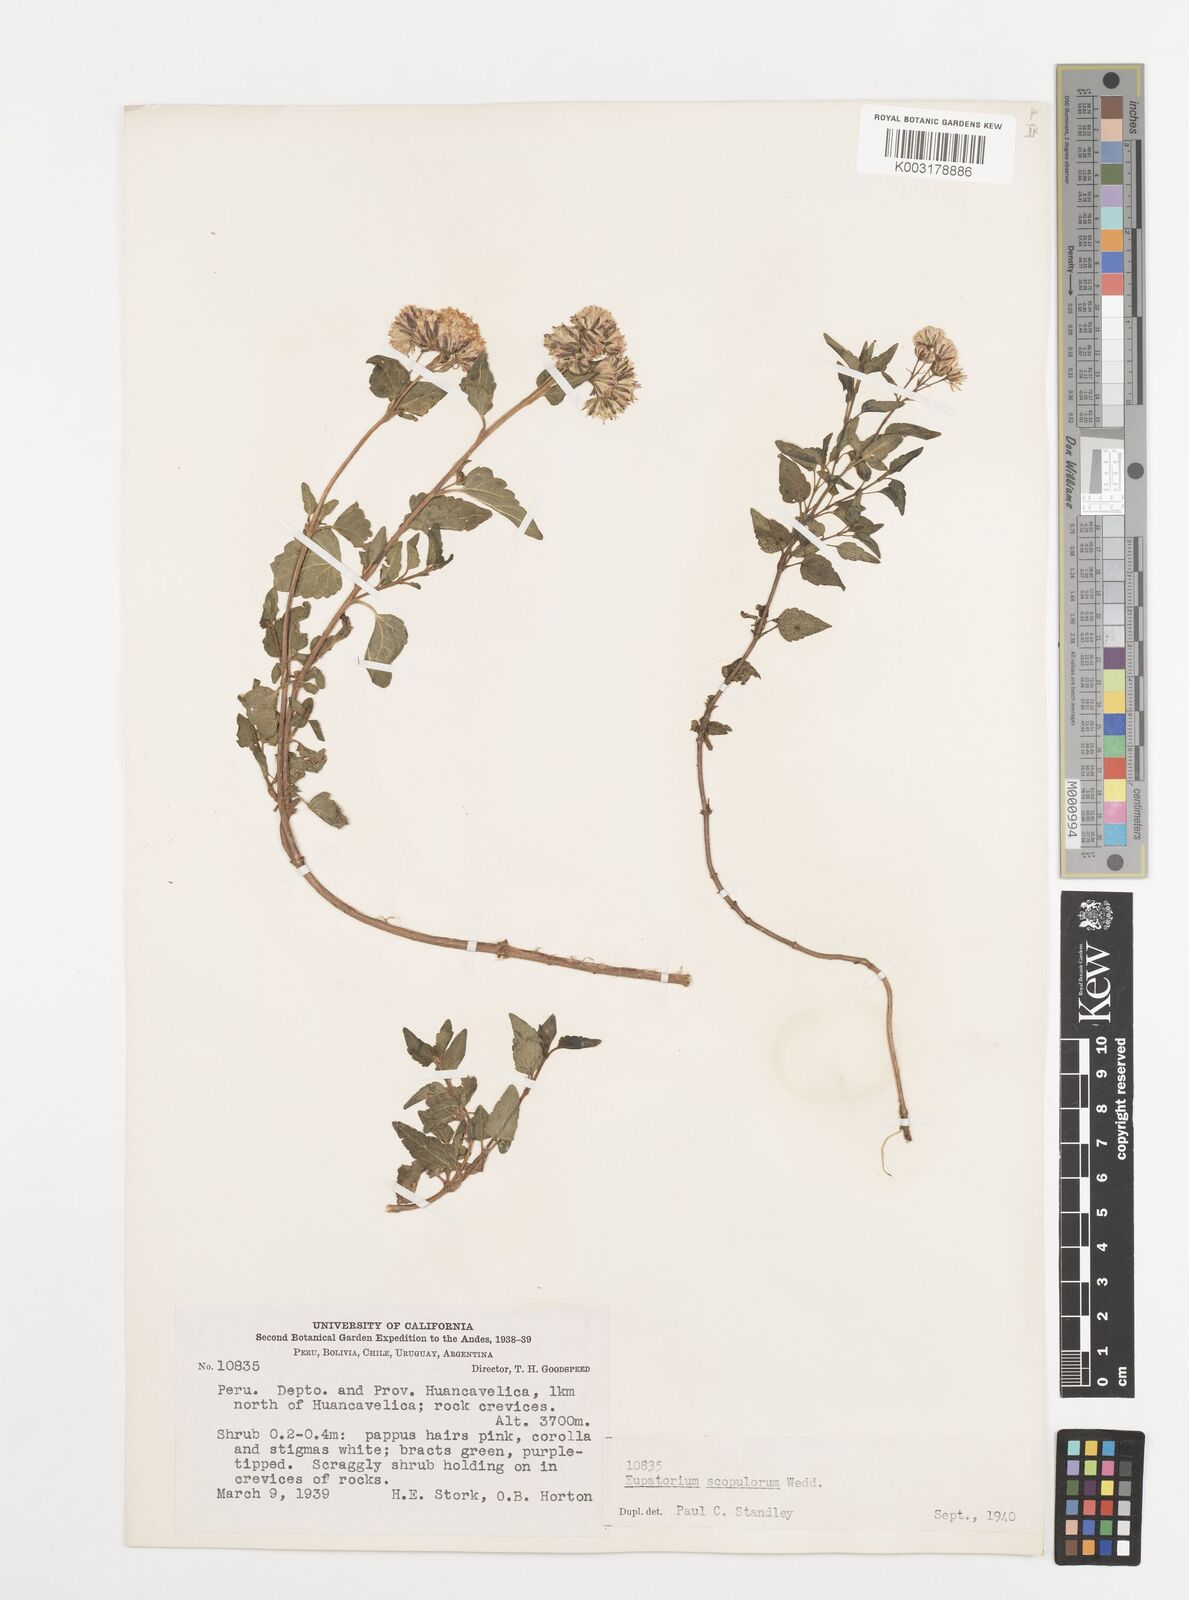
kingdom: Plantae
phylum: Tracheophyta
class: Magnoliopsida
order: Asterales
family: Asteraceae
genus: Ageratina
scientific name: Ageratina scopulorum
